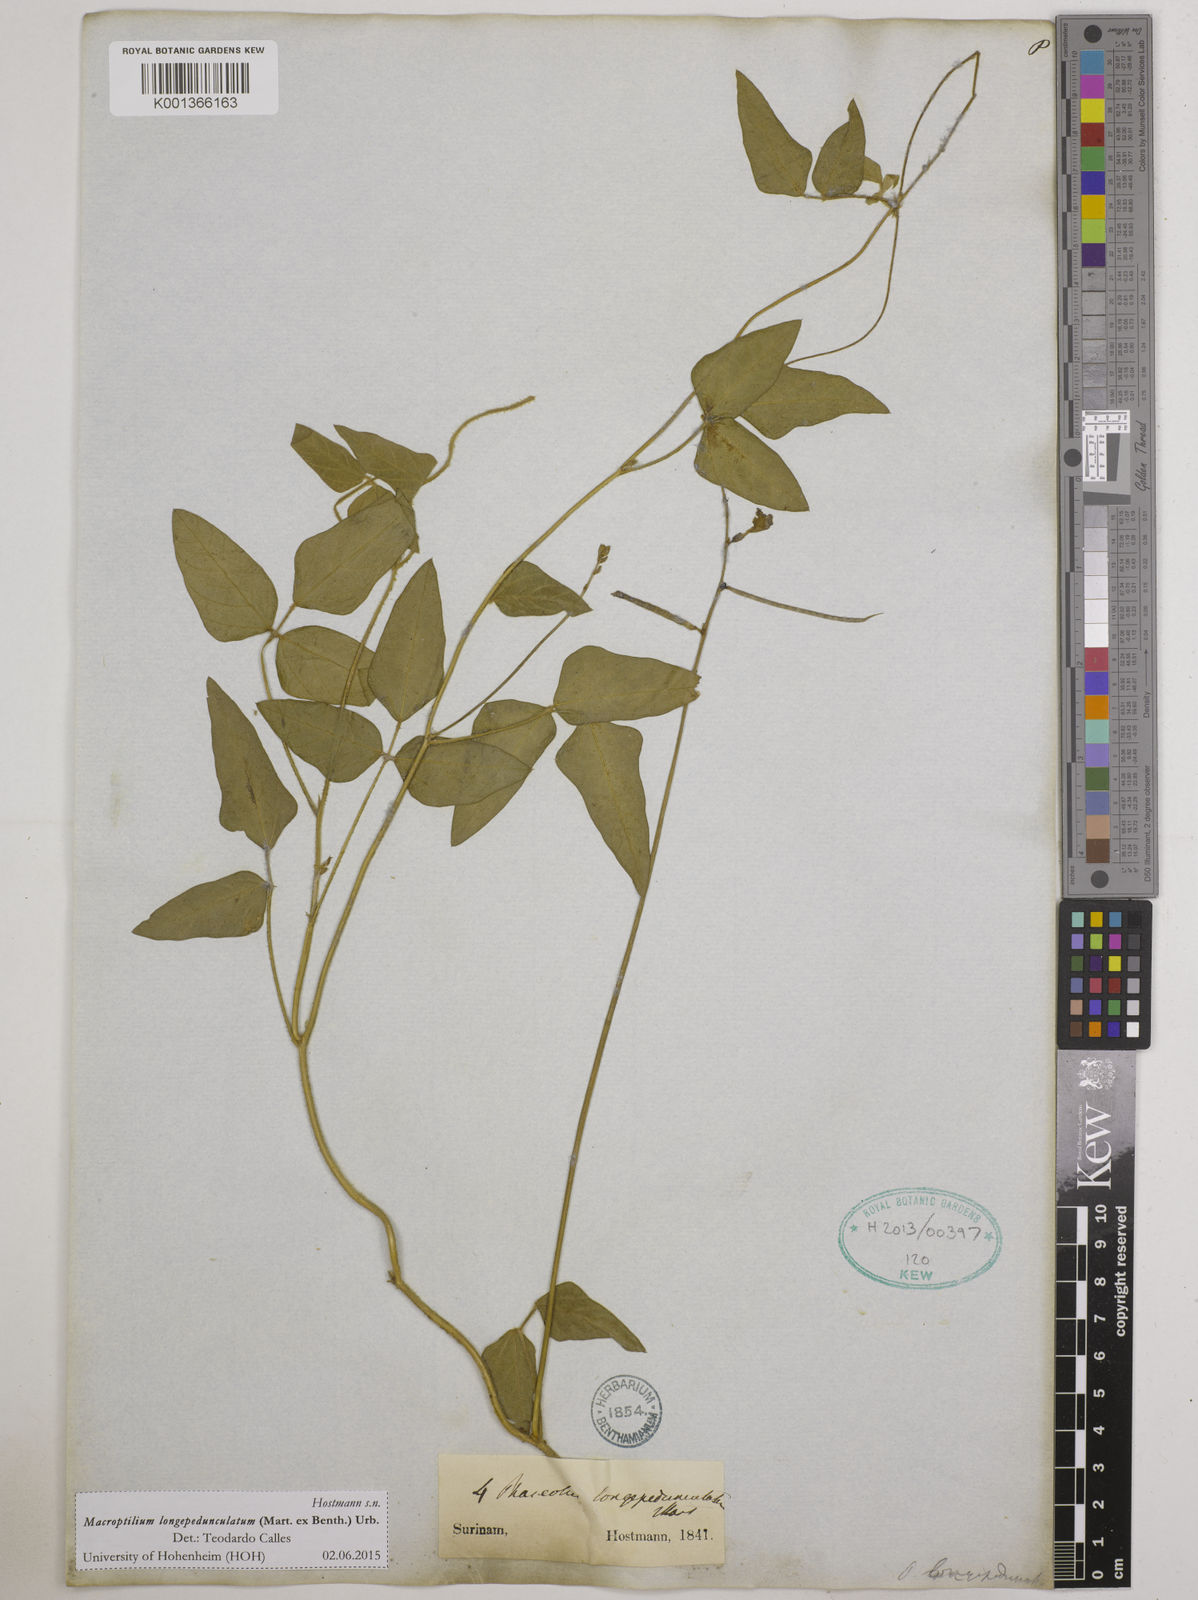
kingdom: Plantae
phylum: Tracheophyta
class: Magnoliopsida
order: Fabales
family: Fabaceae
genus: Macroptilium
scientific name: Macroptilium longepedunculatum
